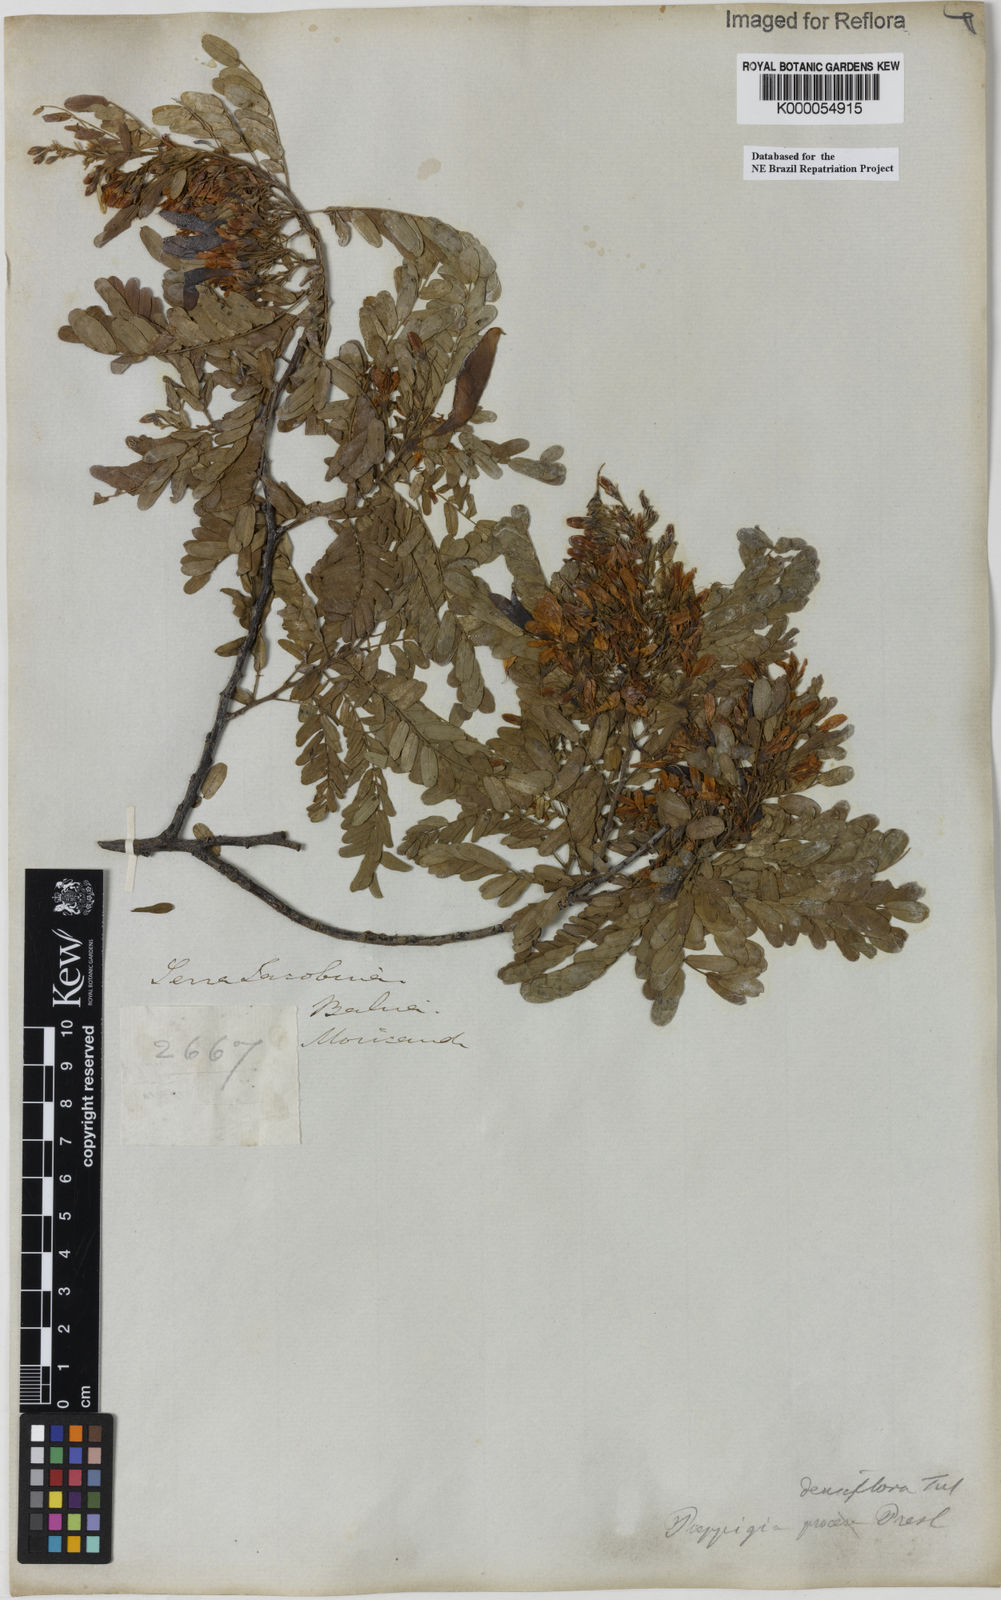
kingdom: Plantae
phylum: Tracheophyta
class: Magnoliopsida
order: Fabales
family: Fabaceae
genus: Poeppigia
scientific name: Poeppigia procera
